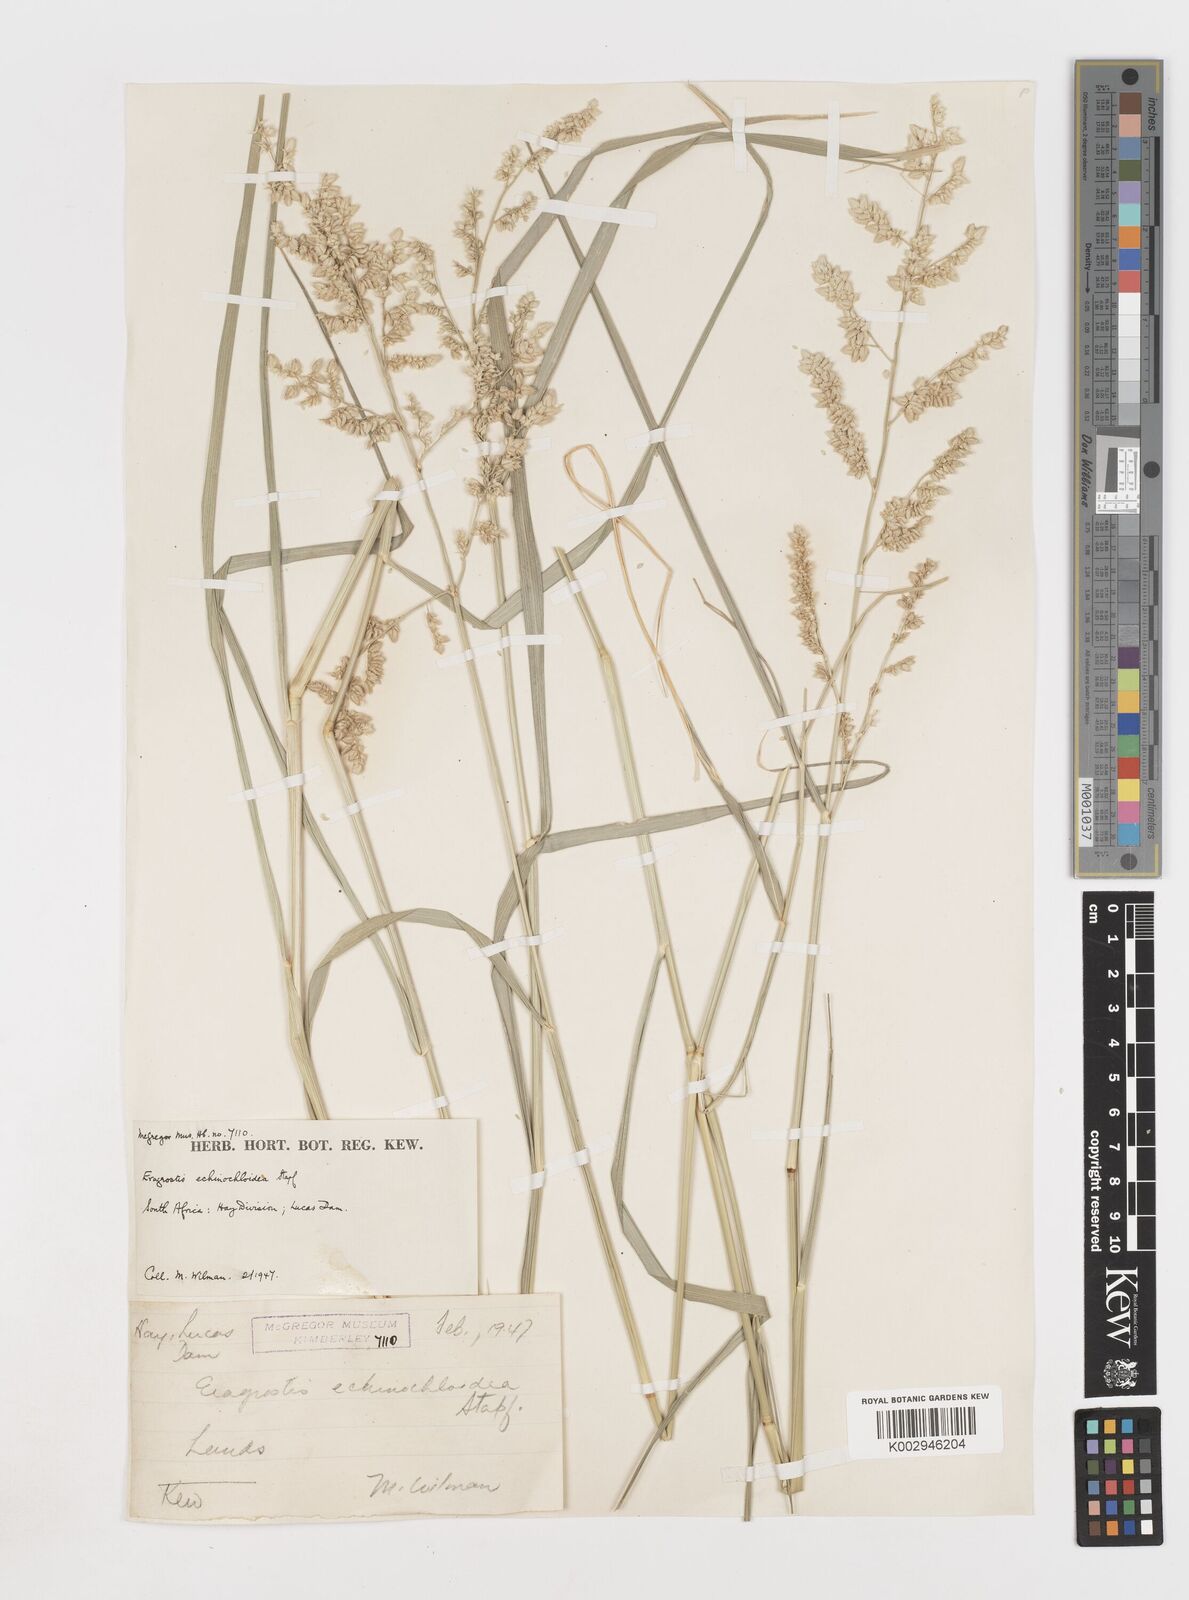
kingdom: Plantae
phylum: Tracheophyta
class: Liliopsida
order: Poales
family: Poaceae
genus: Eragrostis
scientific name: Eragrostis echinochloidea
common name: African lovegrass
